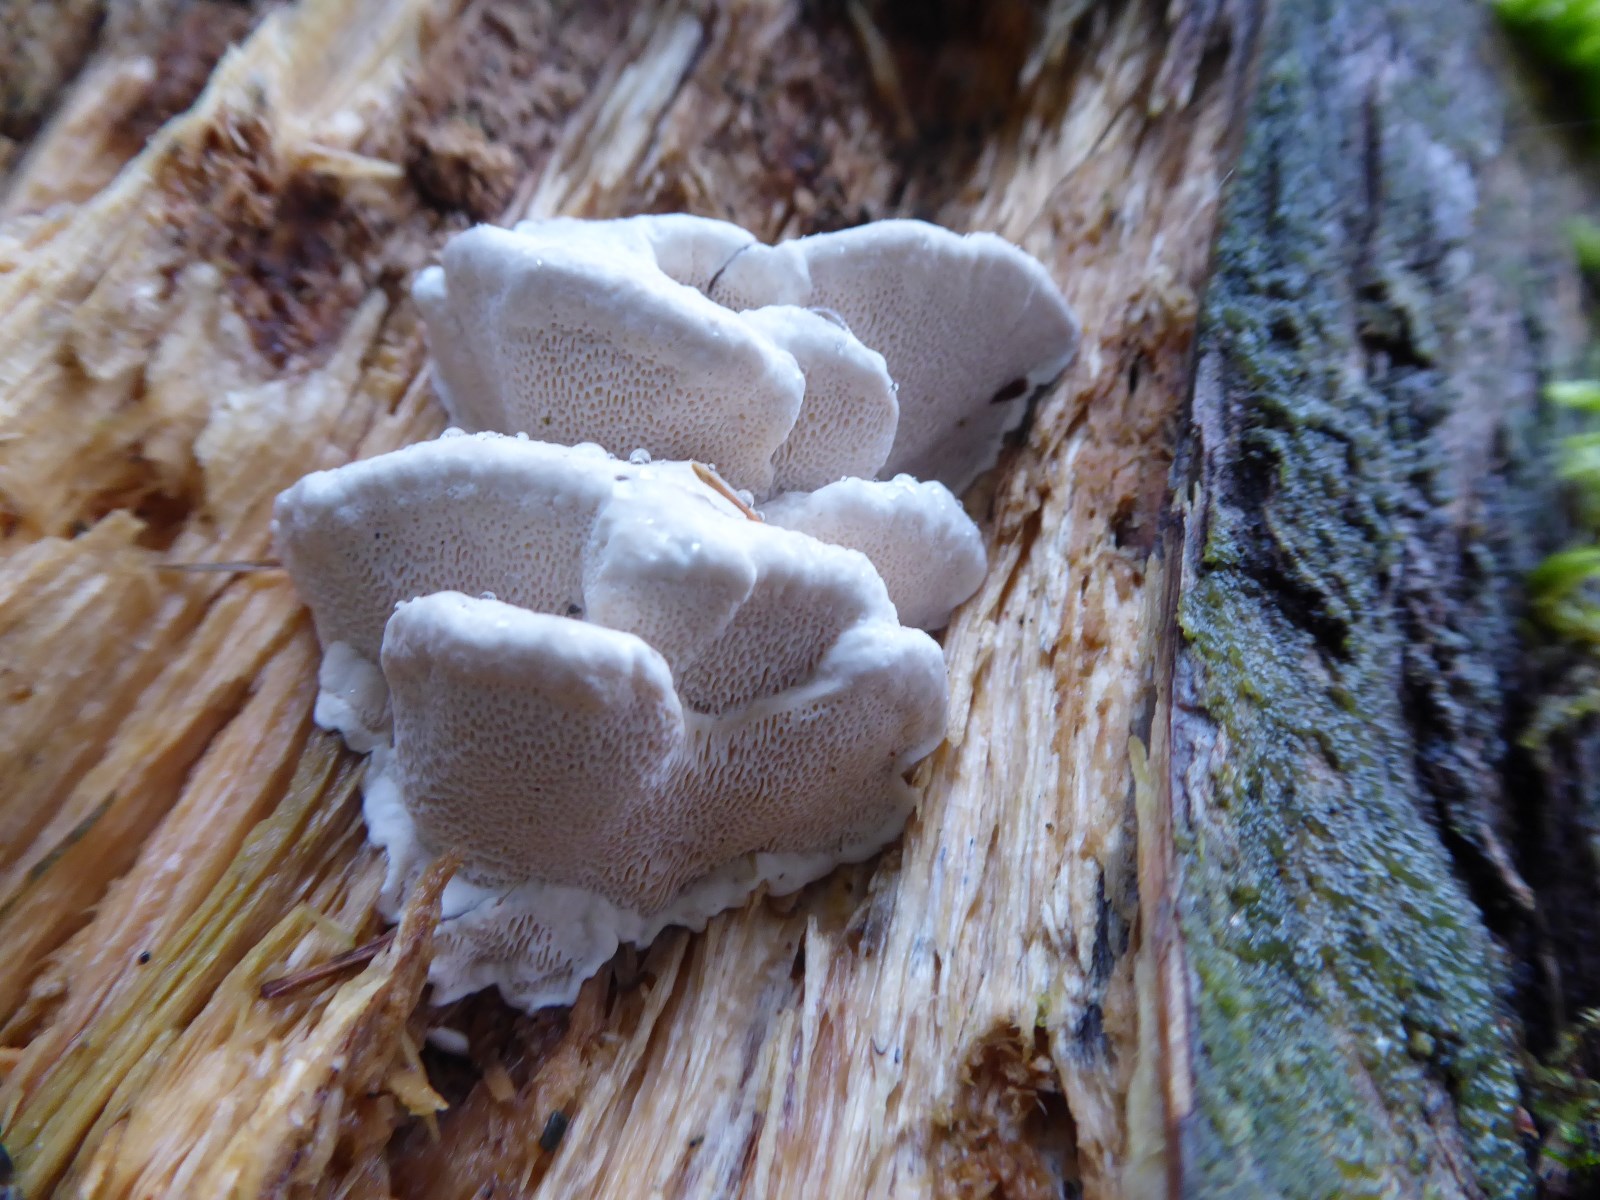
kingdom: Fungi
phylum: Basidiomycota
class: Agaricomycetes
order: Polyporales
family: Polyporaceae
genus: Trametes
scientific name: Trametes gibbosa
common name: puklet læderporesvamp
